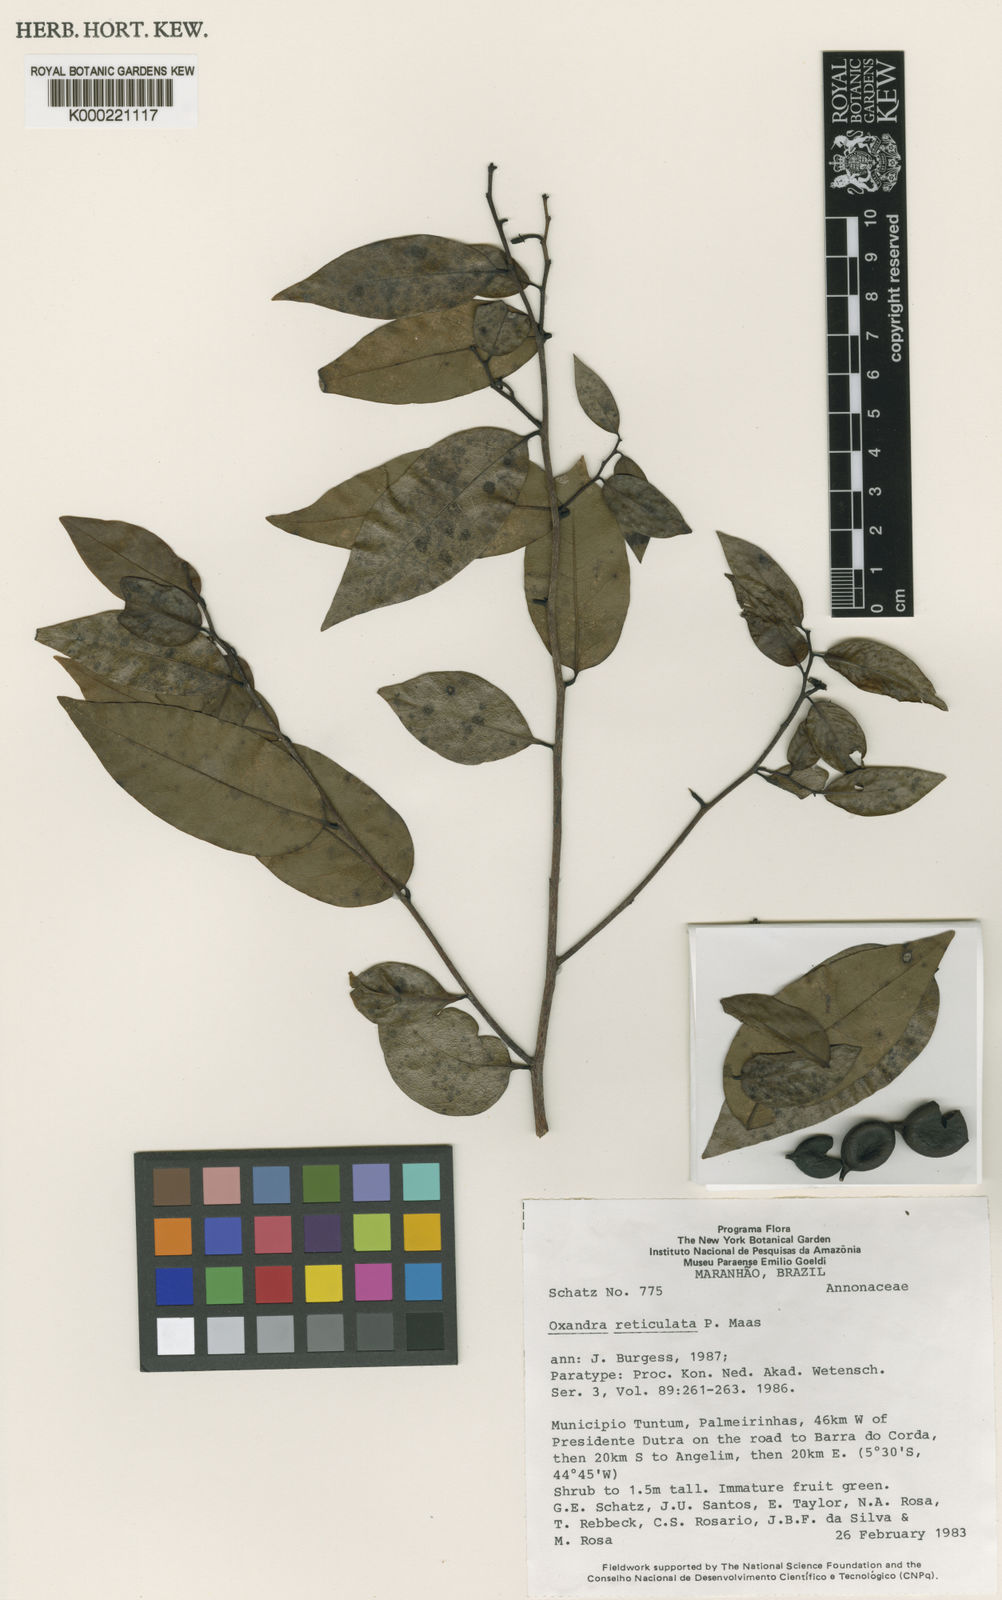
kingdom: Plantae
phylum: Tracheophyta
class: Magnoliopsida
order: Magnoliales
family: Annonaceae
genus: Oxandra
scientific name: Oxandra reticulata
